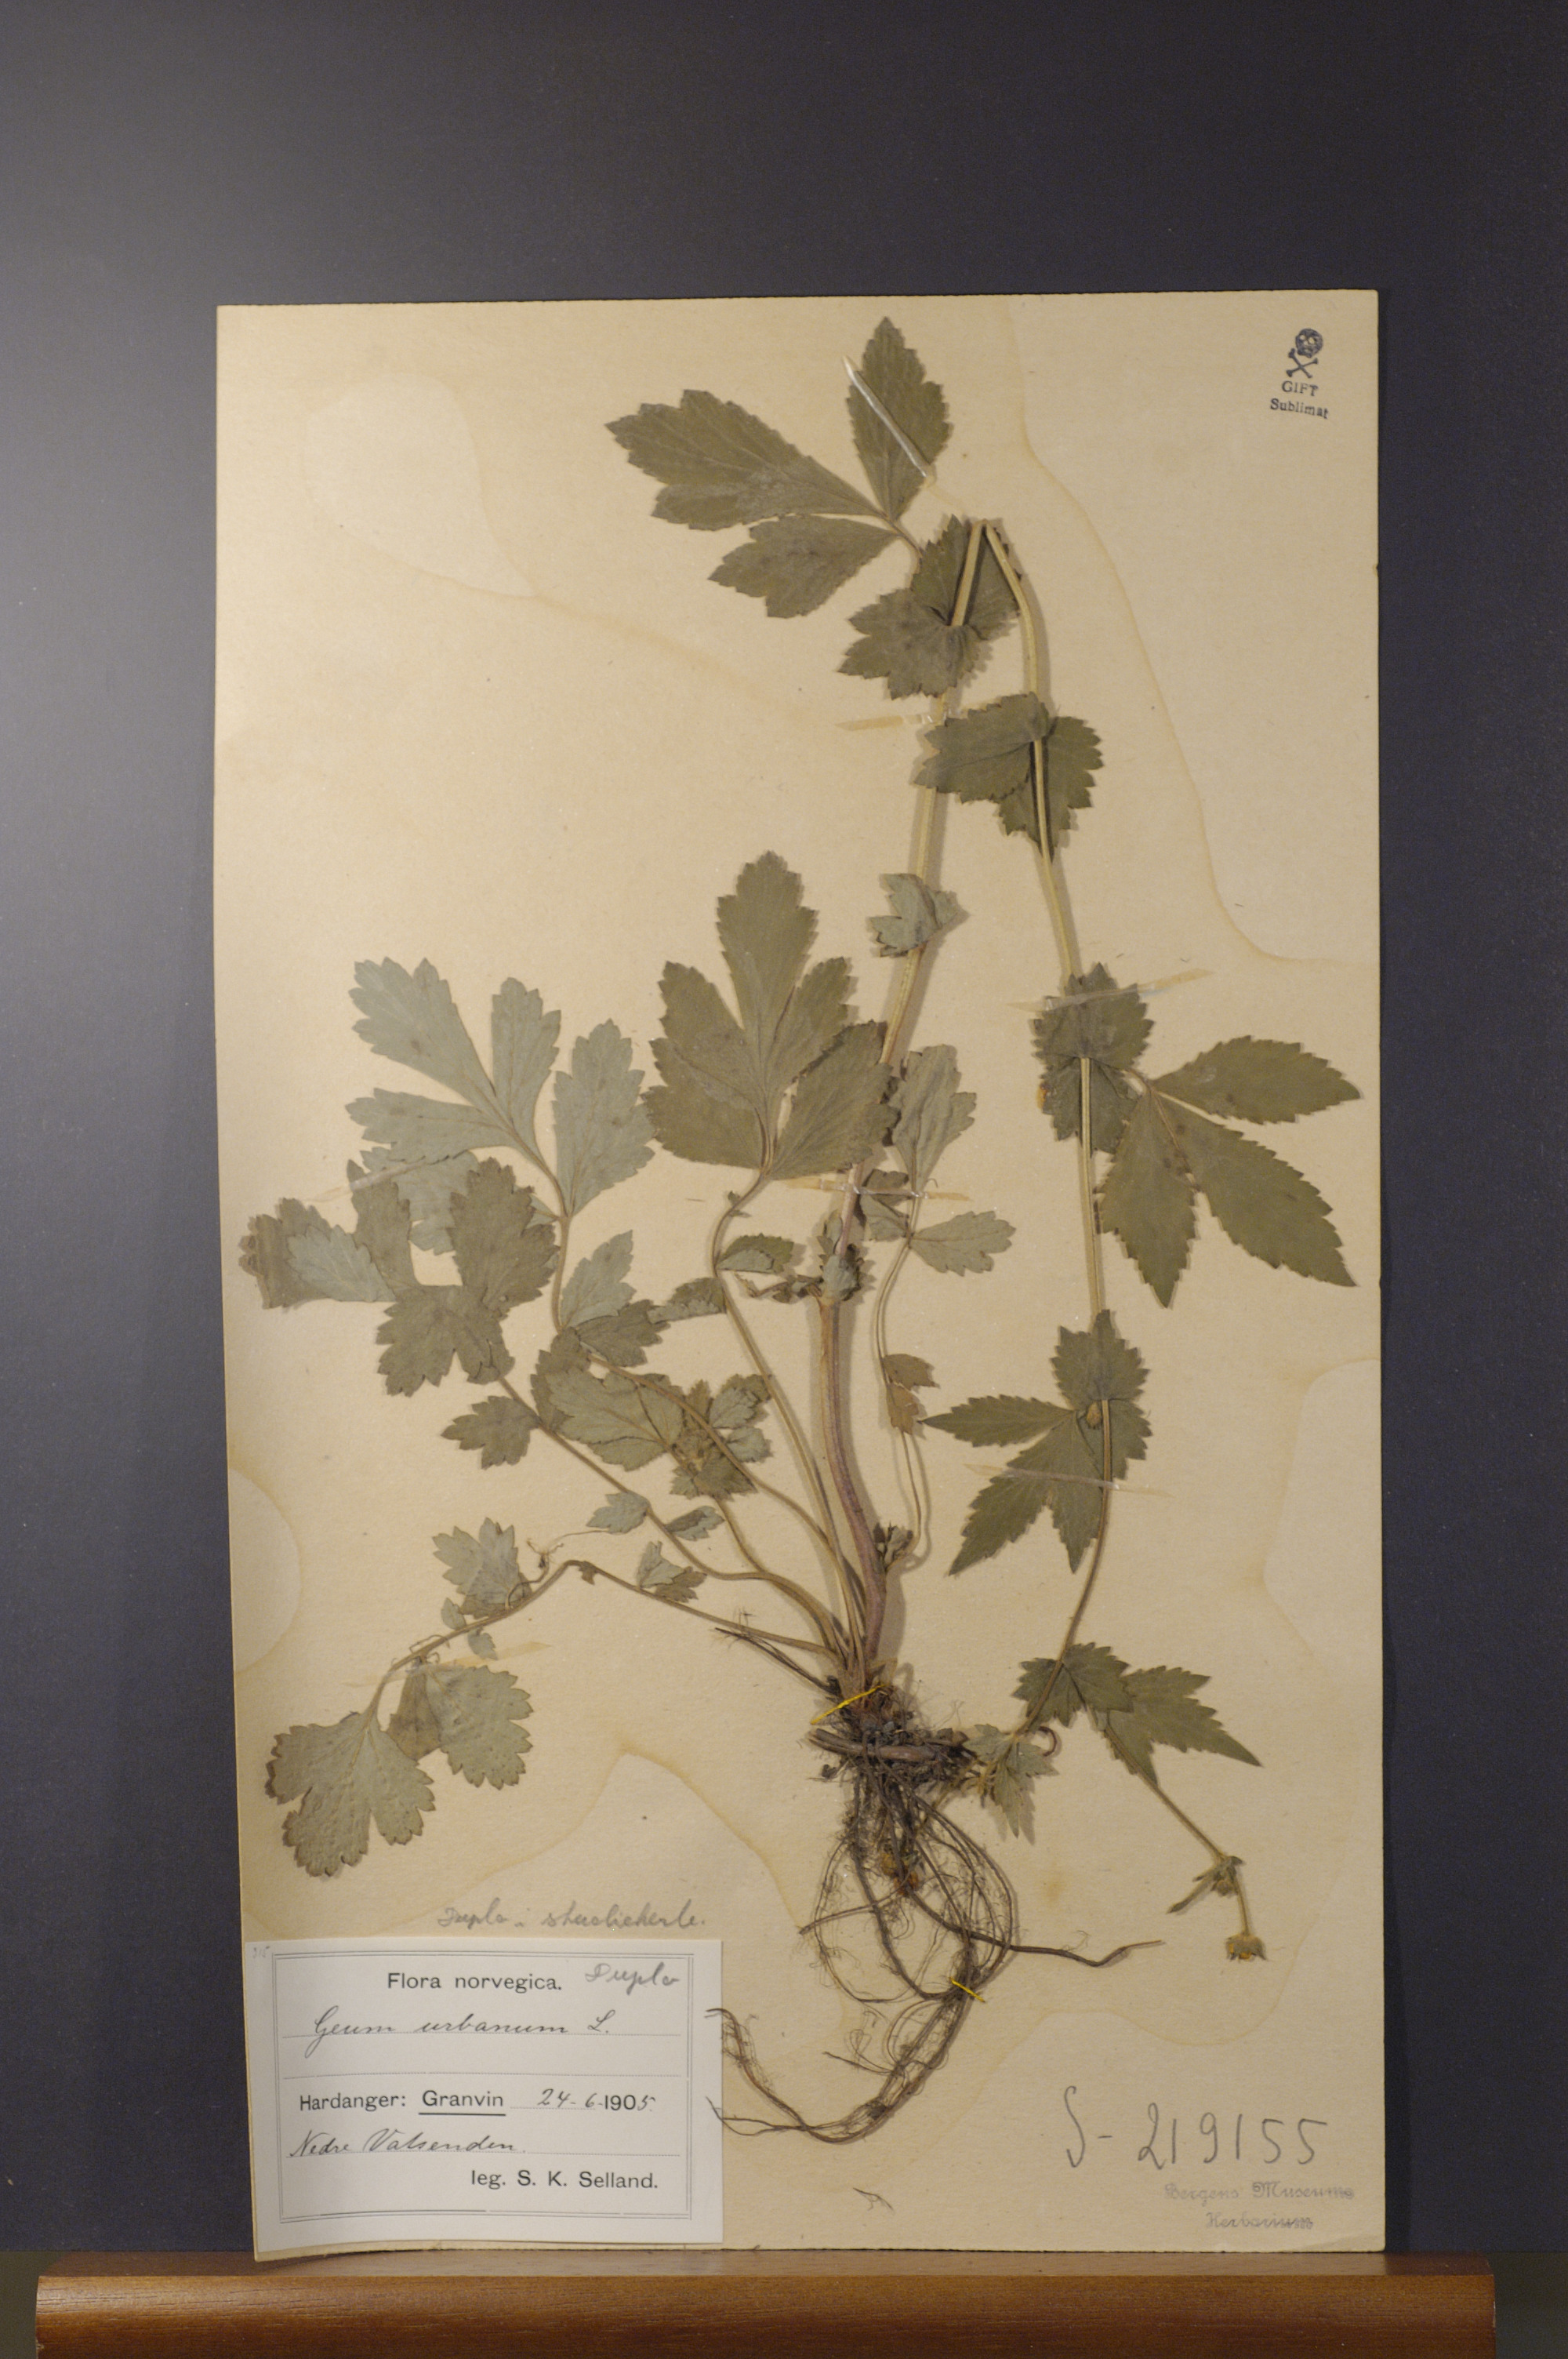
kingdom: Plantae
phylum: Tracheophyta
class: Magnoliopsida
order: Rosales
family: Rosaceae
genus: Geum
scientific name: Geum urbanum
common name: Wood avens
